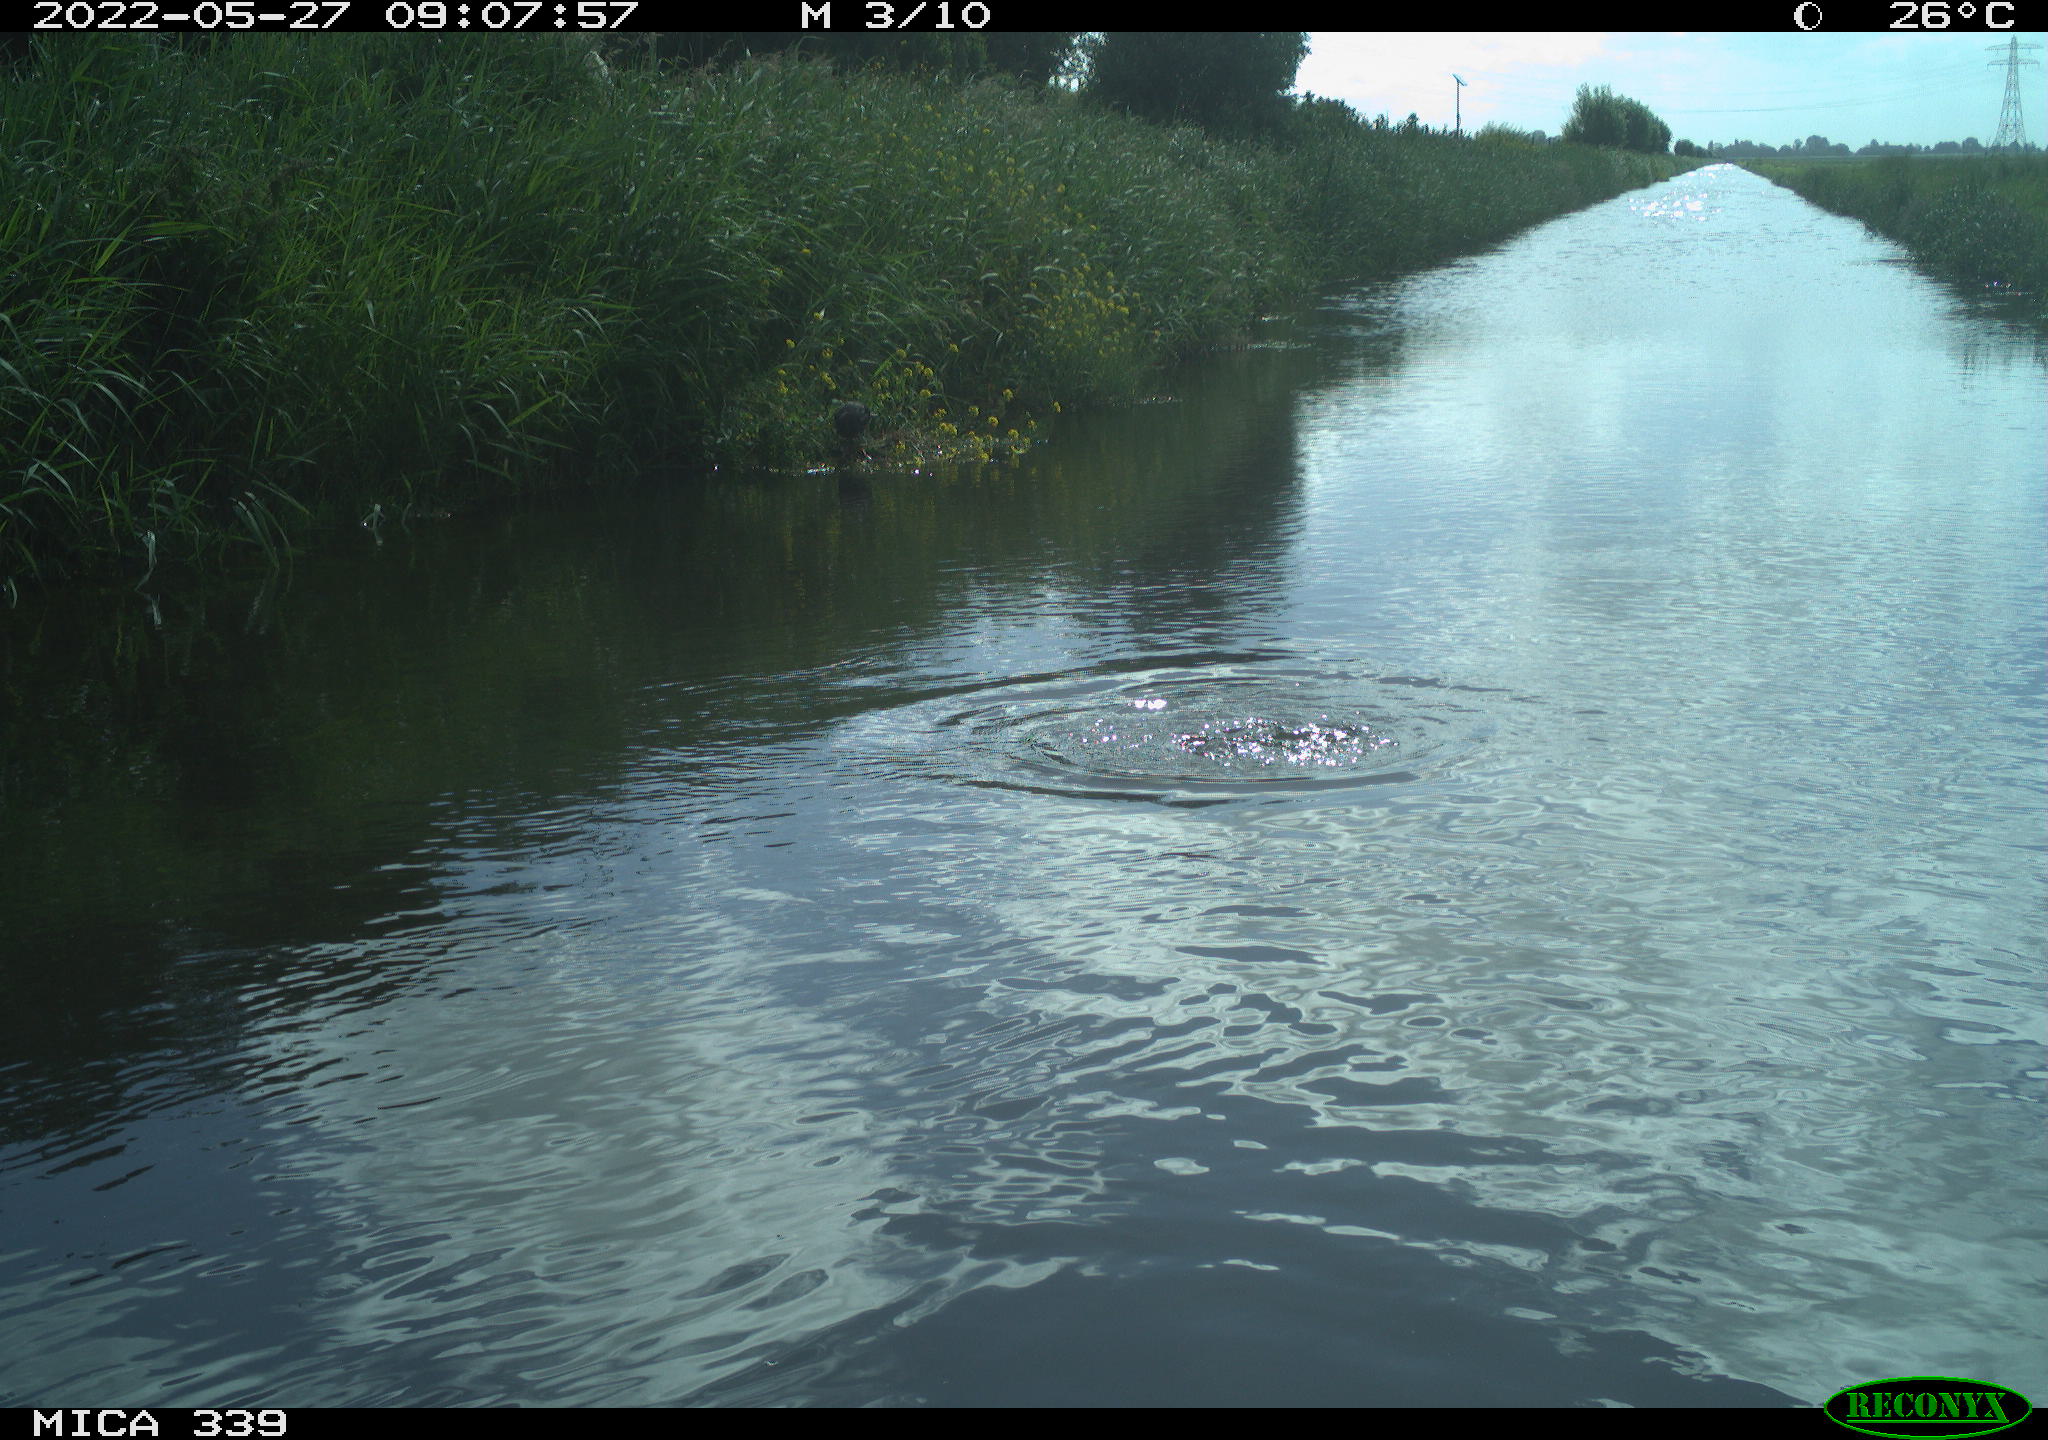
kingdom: Animalia
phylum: Chordata
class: Aves
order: Gruiformes
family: Rallidae
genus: Fulica
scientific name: Fulica atra
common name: Eurasian coot
